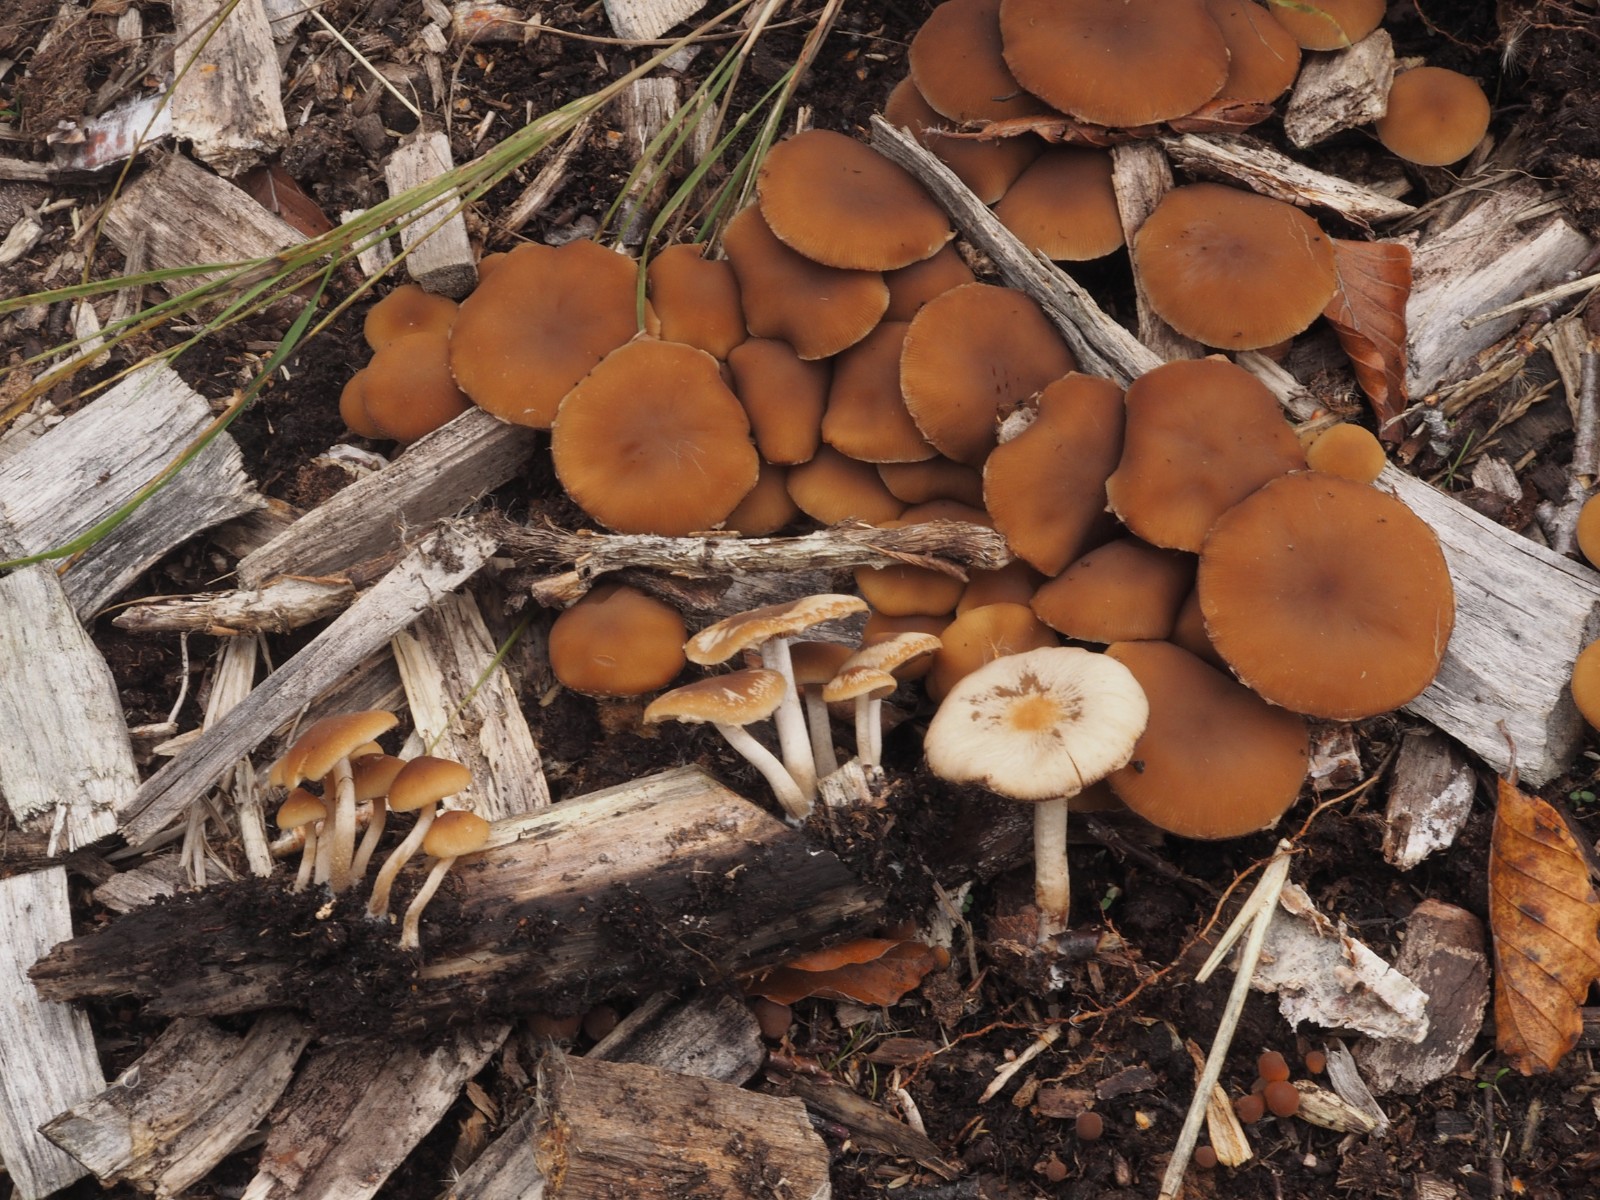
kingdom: Fungi
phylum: Basidiomycota
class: Agaricomycetes
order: Agaricales
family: Psathyrellaceae
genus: Psathyrella
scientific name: Psathyrella piluliformis
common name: lysstokket mørkhat
